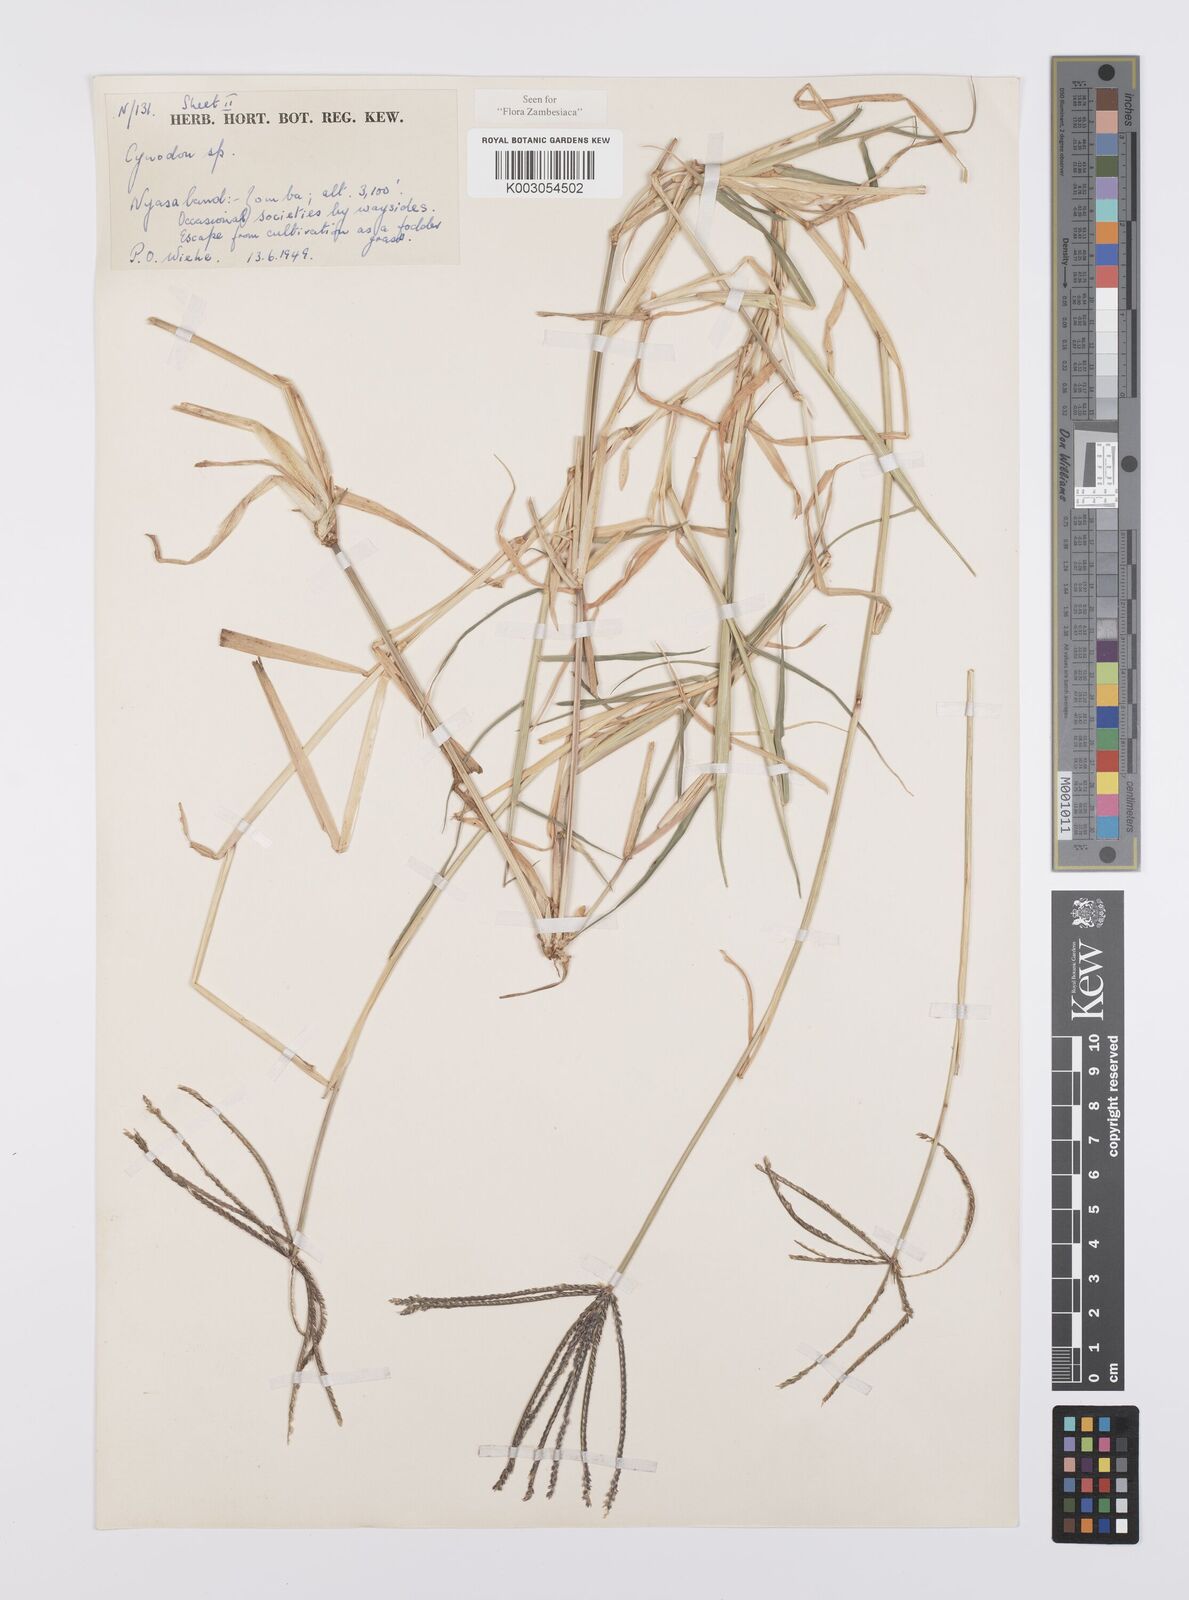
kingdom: Plantae
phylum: Tracheophyta
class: Liliopsida
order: Poales
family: Poaceae
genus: Cynodon
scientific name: Cynodon aethiopicus
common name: Ethiopian dogstooth grass
